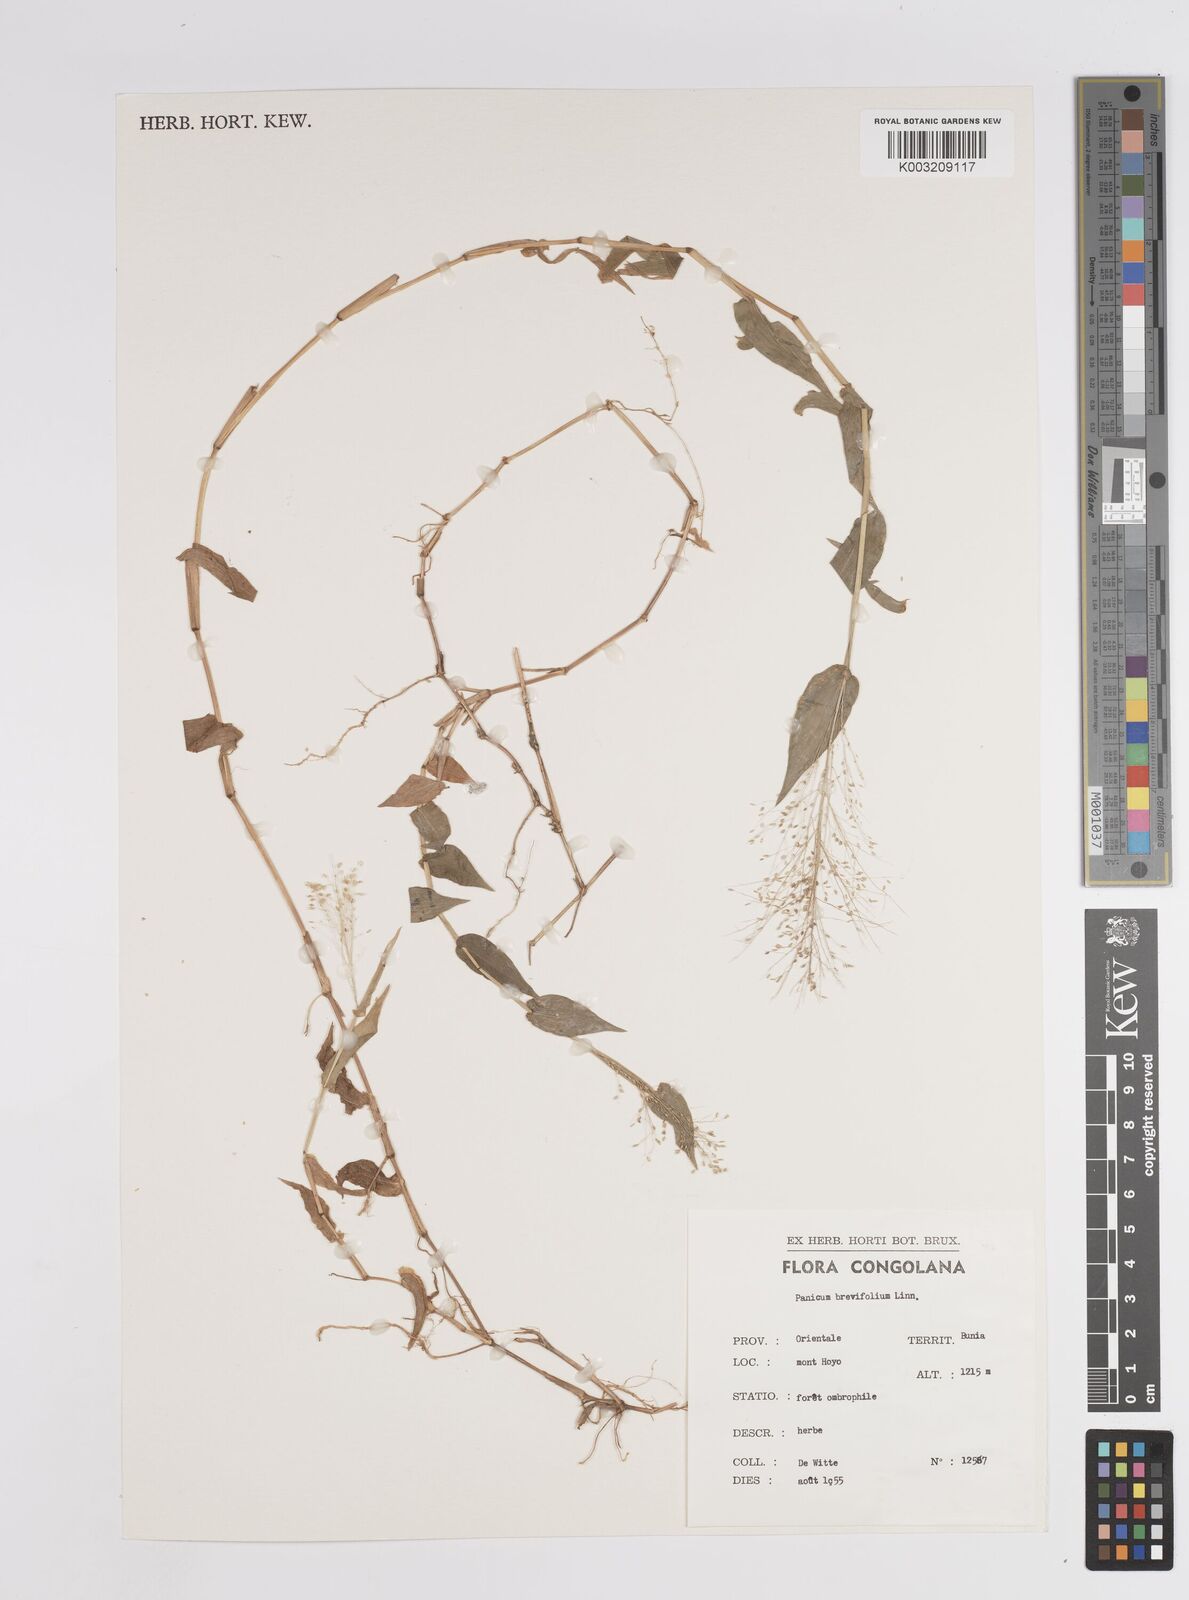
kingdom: Plantae
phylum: Tracheophyta
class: Liliopsida
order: Poales
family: Poaceae
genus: Panicum
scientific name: Panicum brevifolium
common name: Shortleaf panic grass
